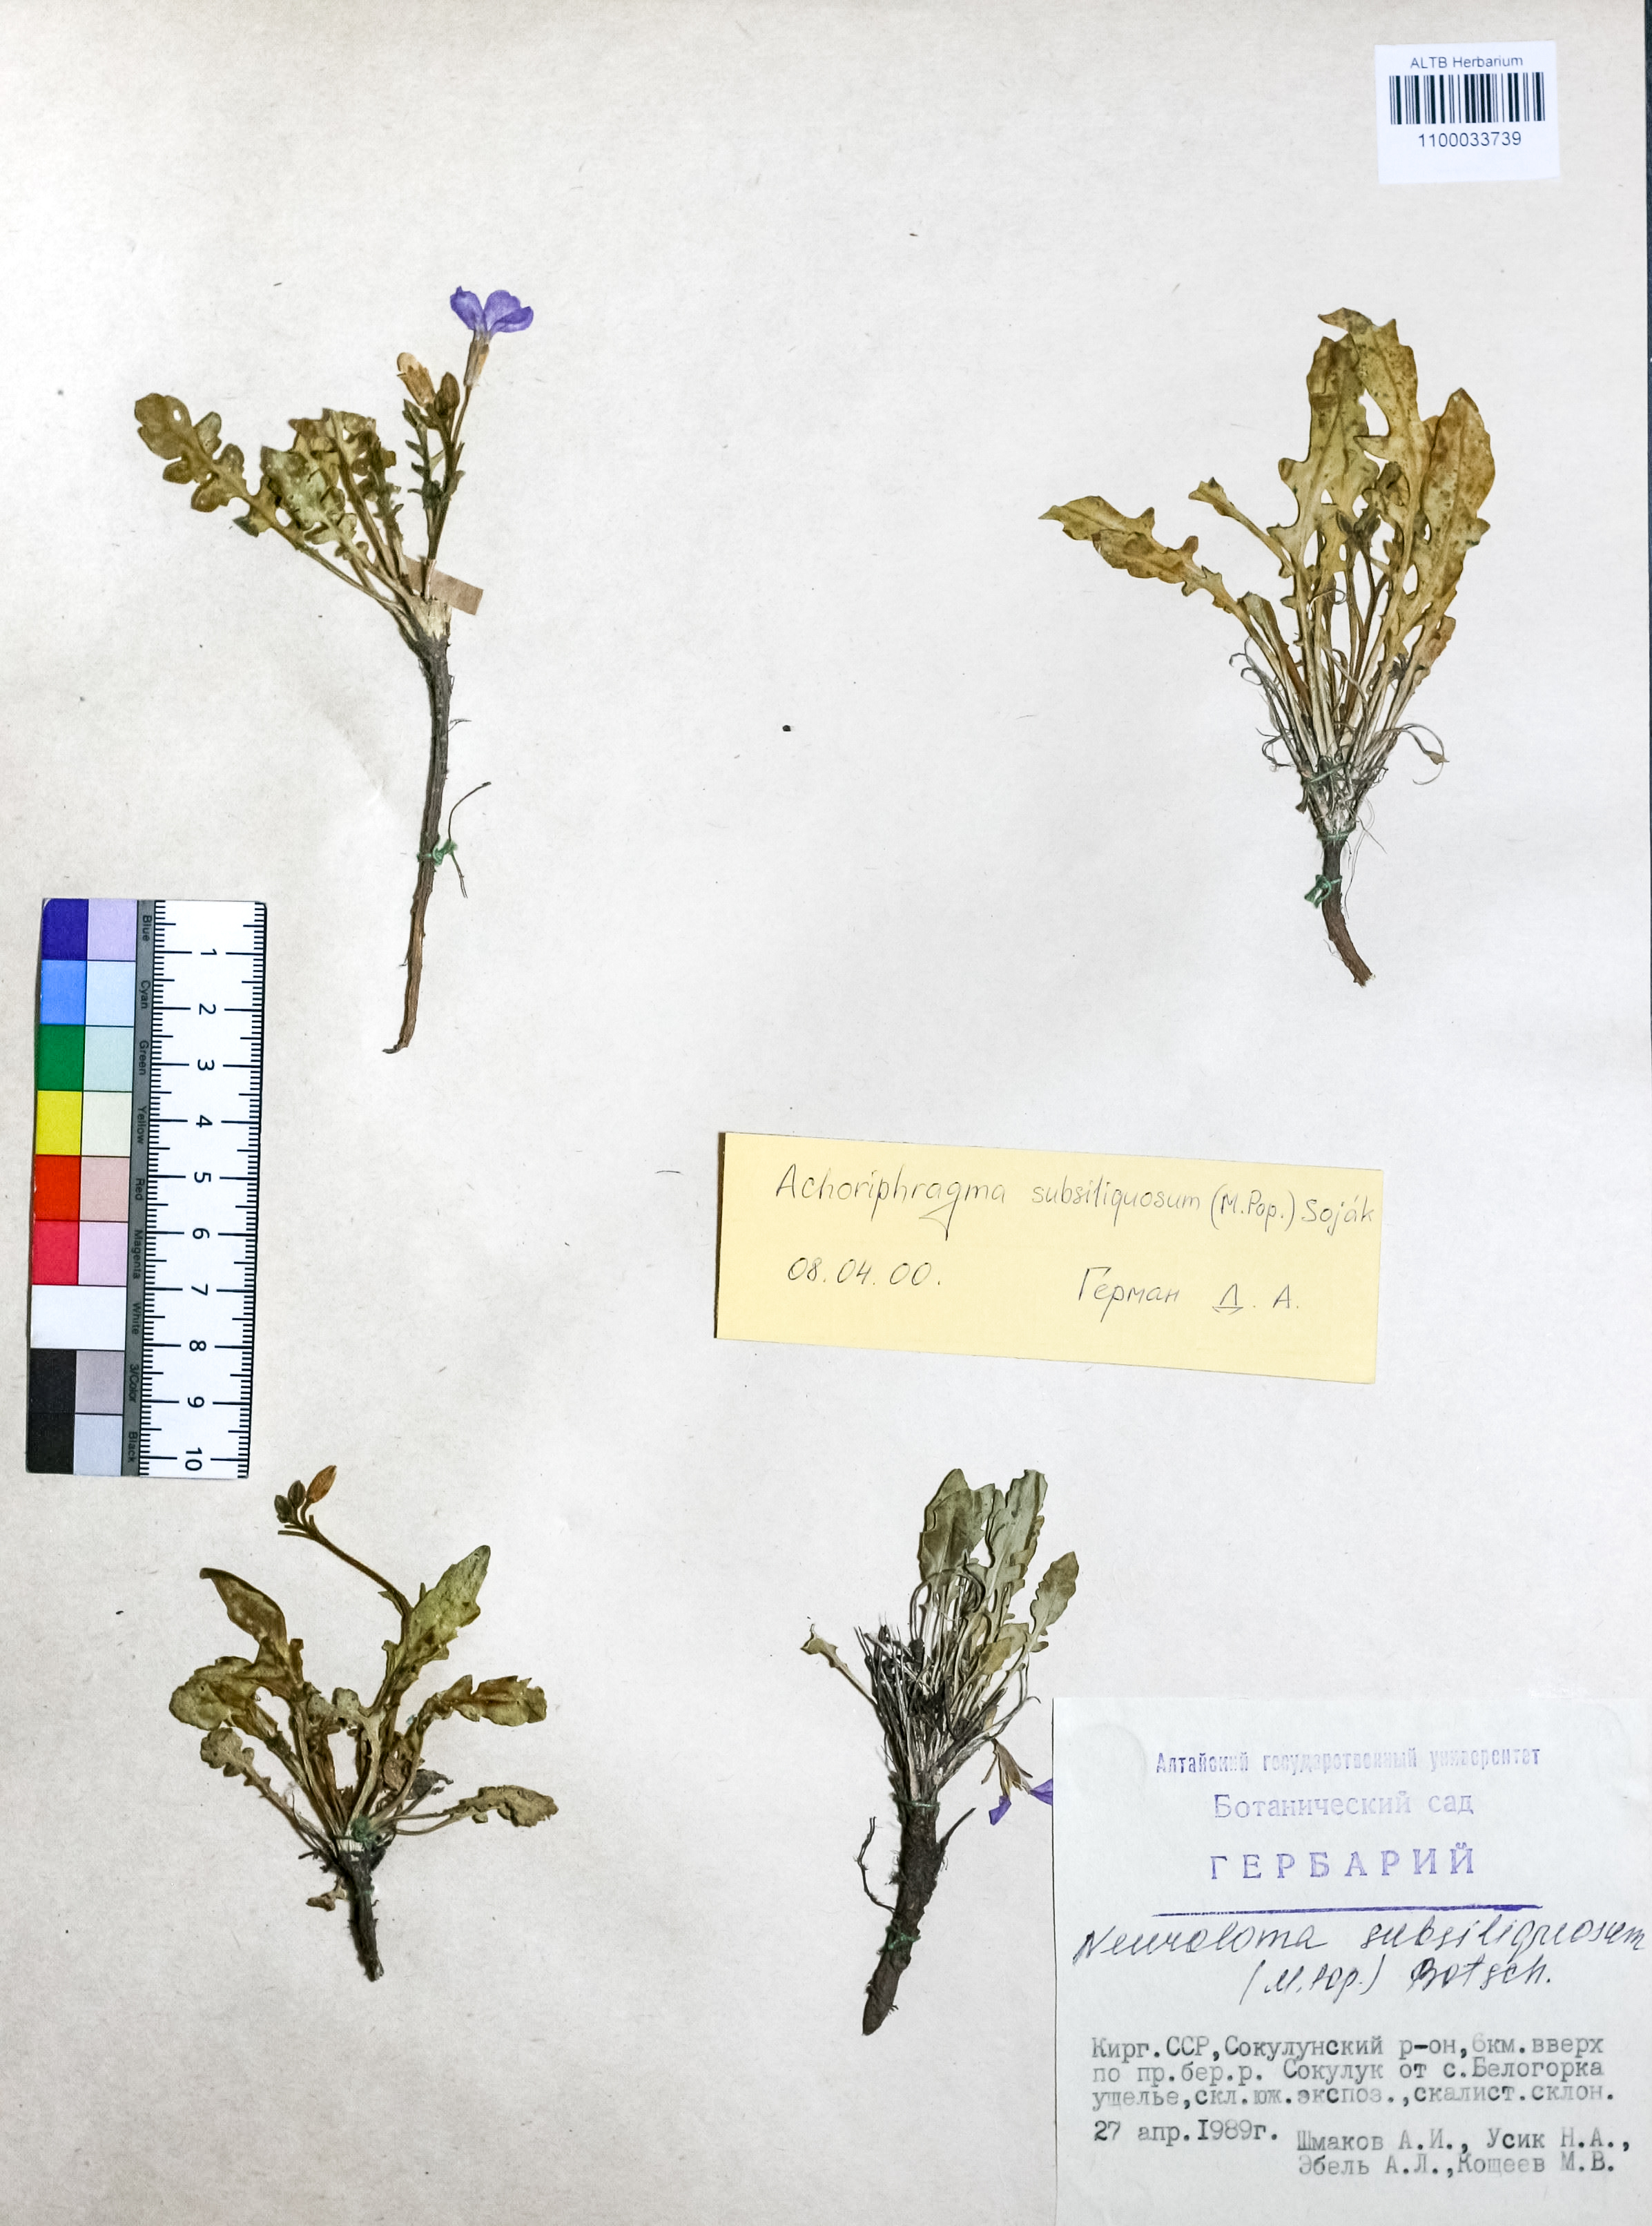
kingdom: Plantae
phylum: Tracheophyta
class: Magnoliopsida
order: Brassicales
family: Brassicaceae
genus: Parrya
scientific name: Parrya subsiliquosa
